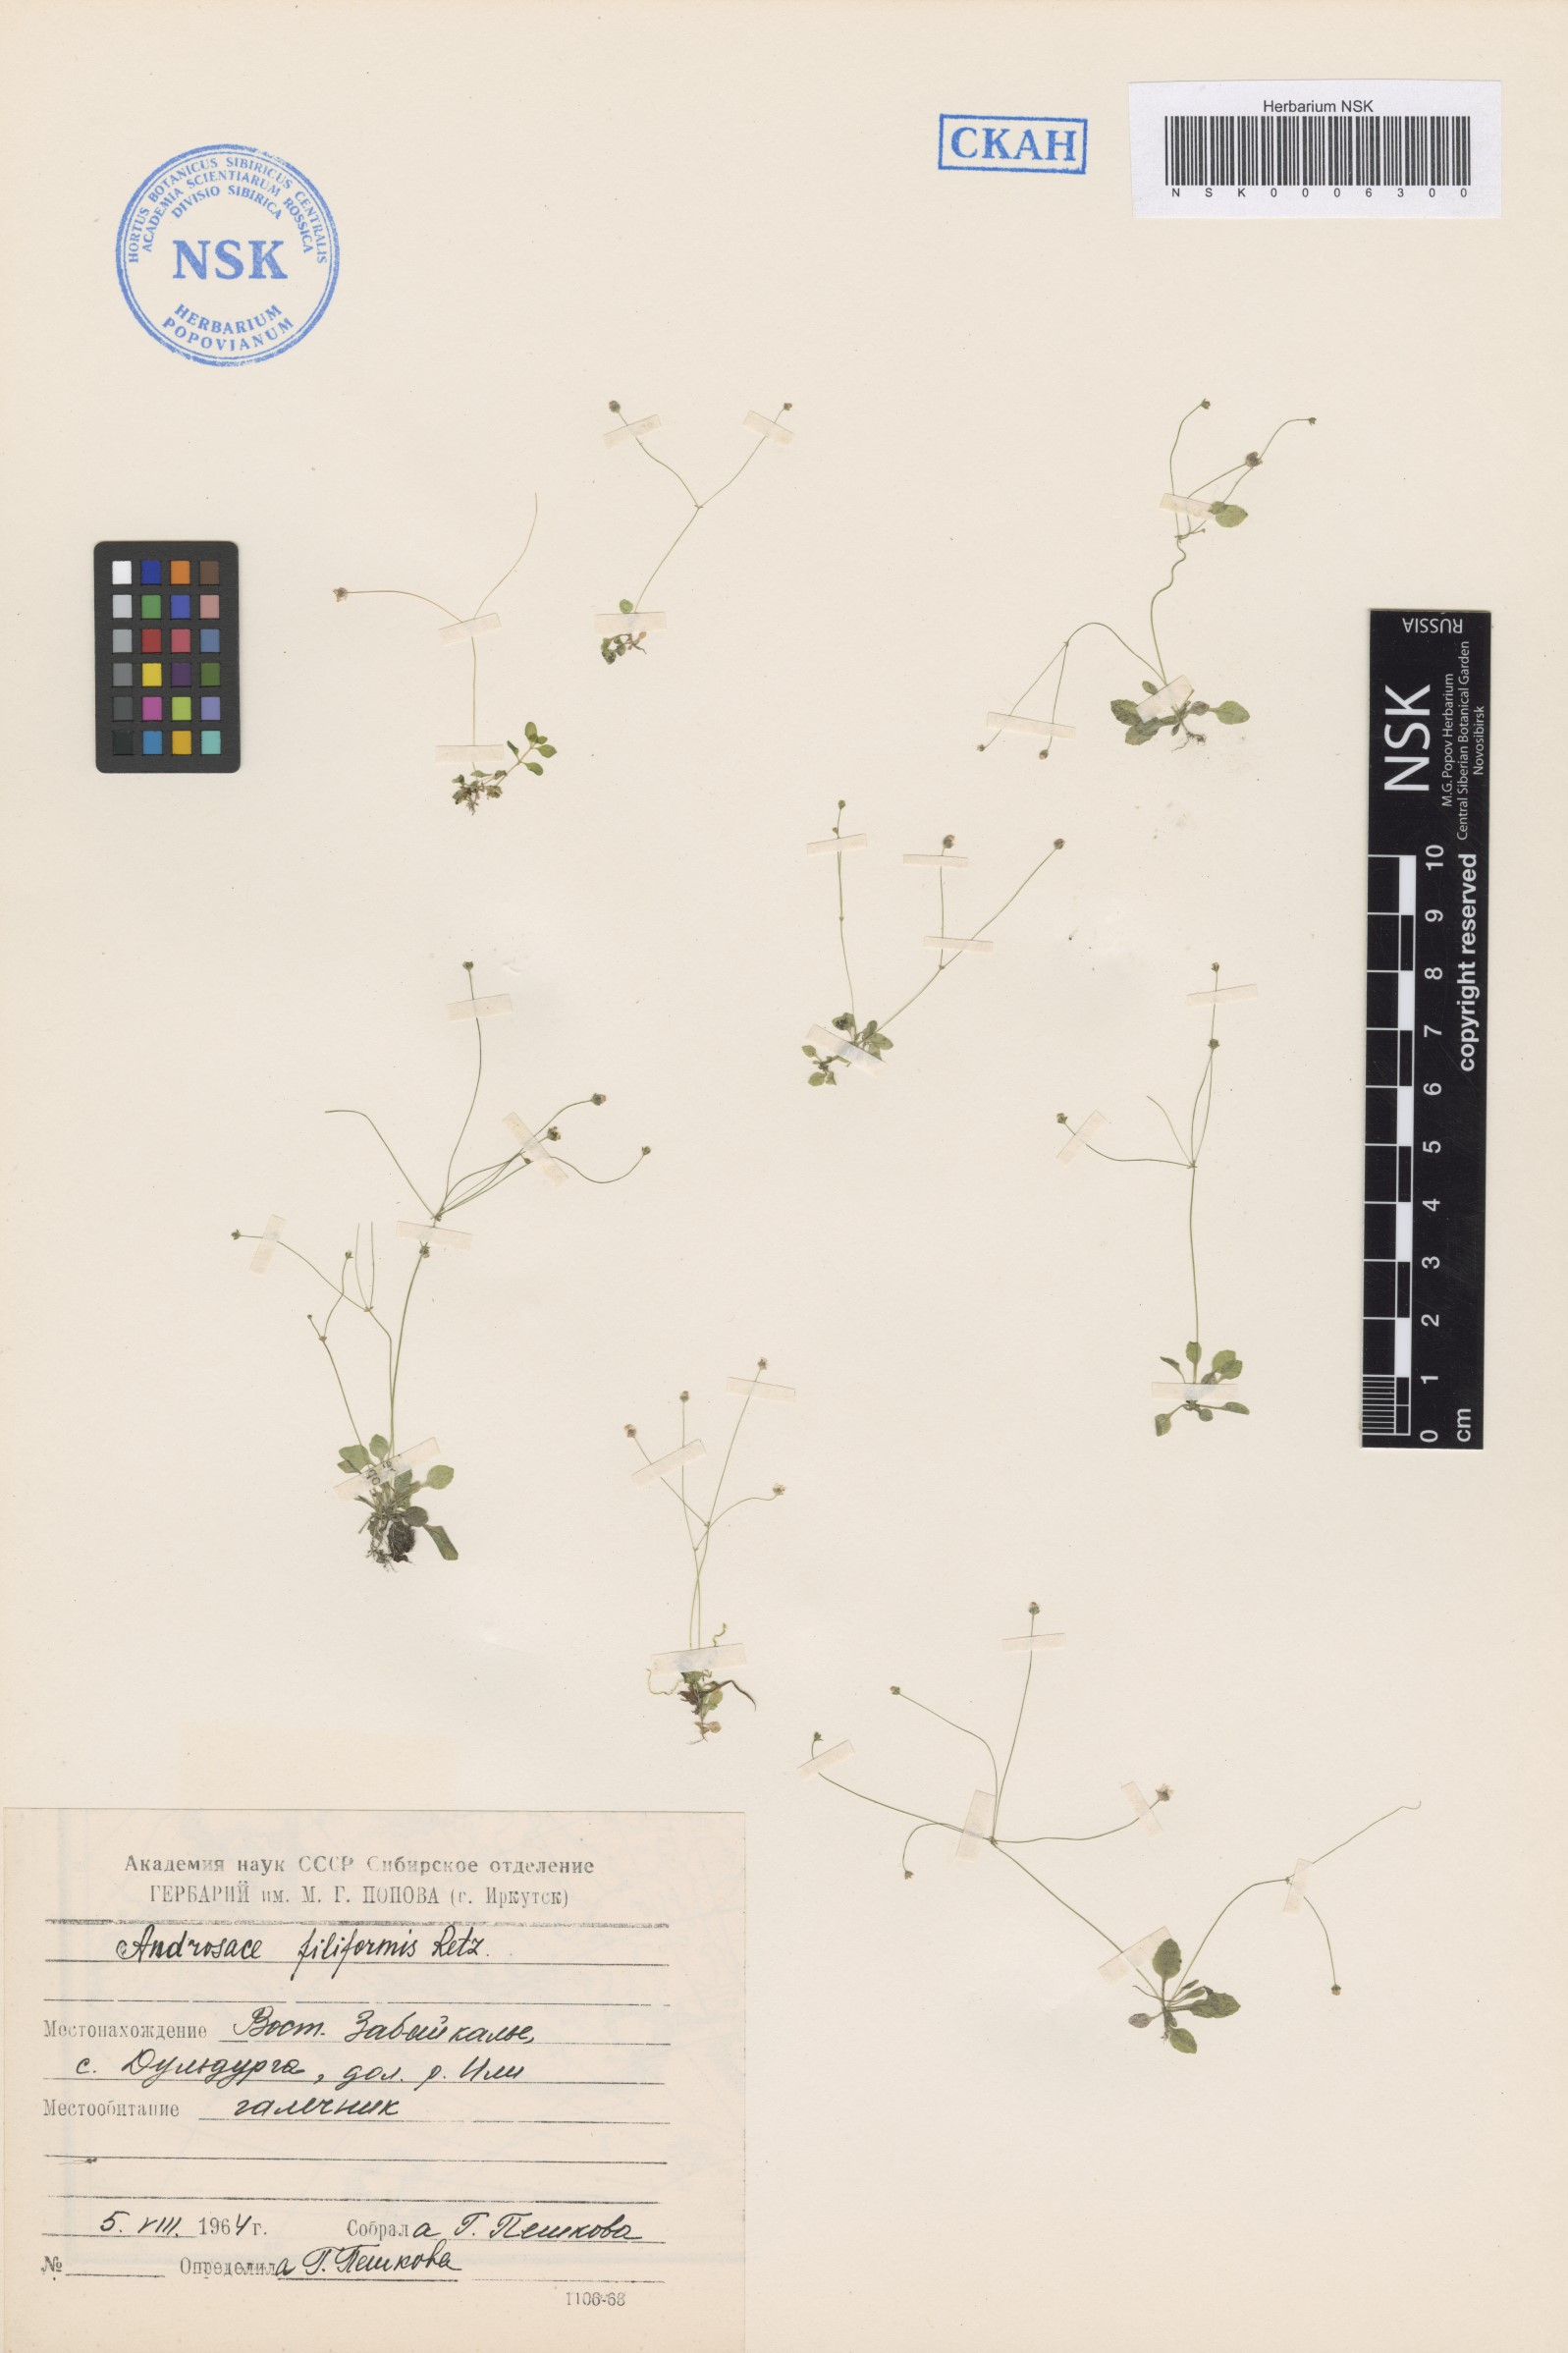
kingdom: Plantae
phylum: Tracheophyta
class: Magnoliopsida
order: Ericales
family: Primulaceae
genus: Androsace
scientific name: Androsace filiformis
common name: Filiform rock jasmine
